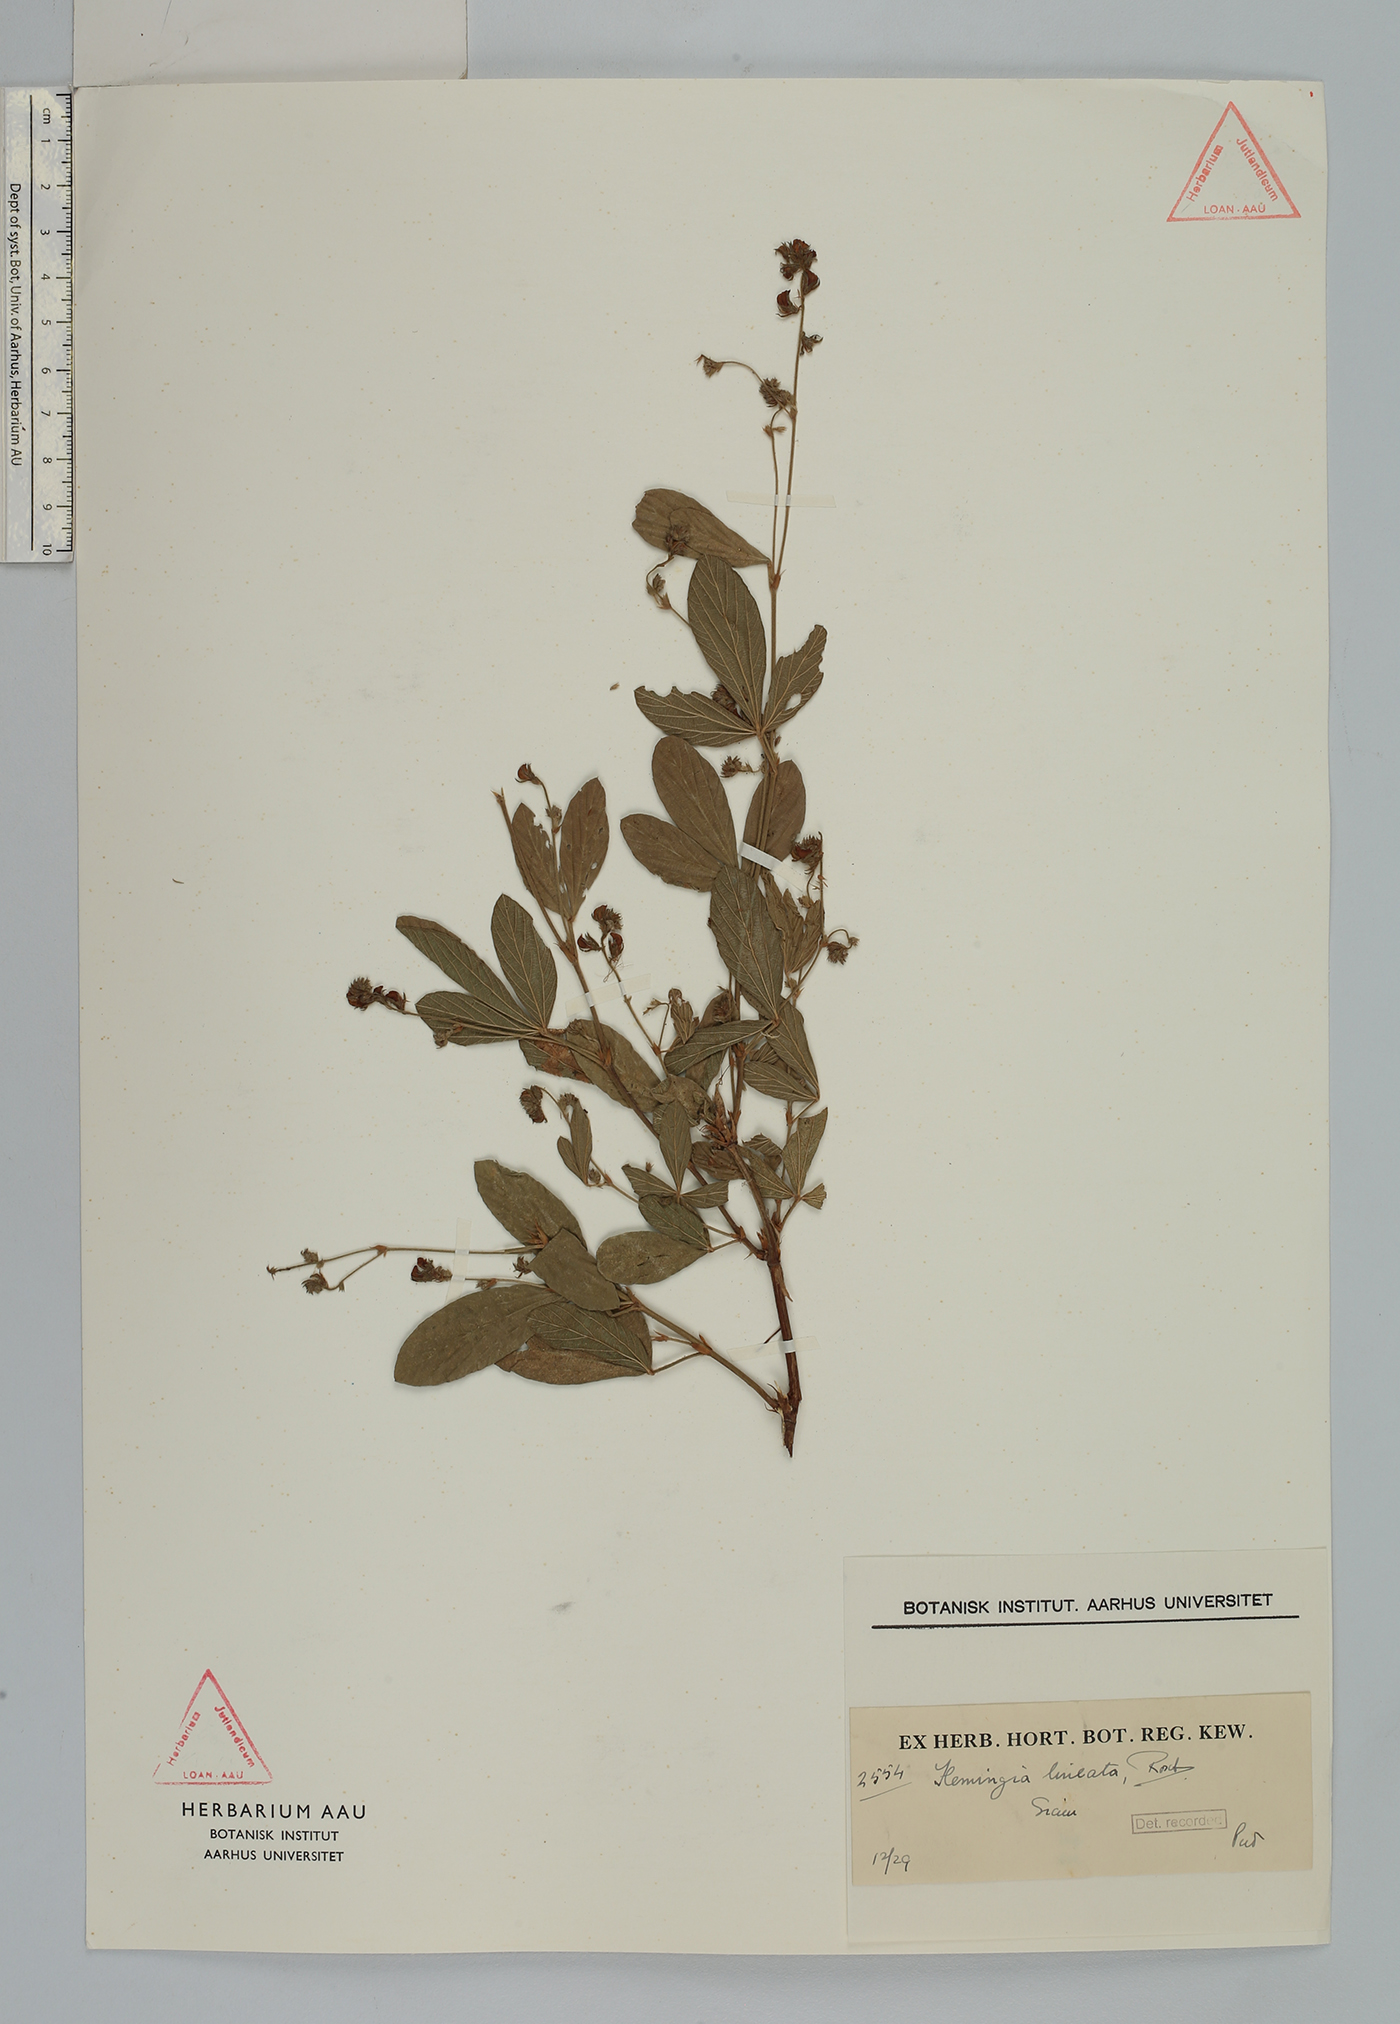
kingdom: Plantae
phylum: Tracheophyta
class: Magnoliopsida
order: Fabales
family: Fabaceae
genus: Flemingia
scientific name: Flemingia lineata
